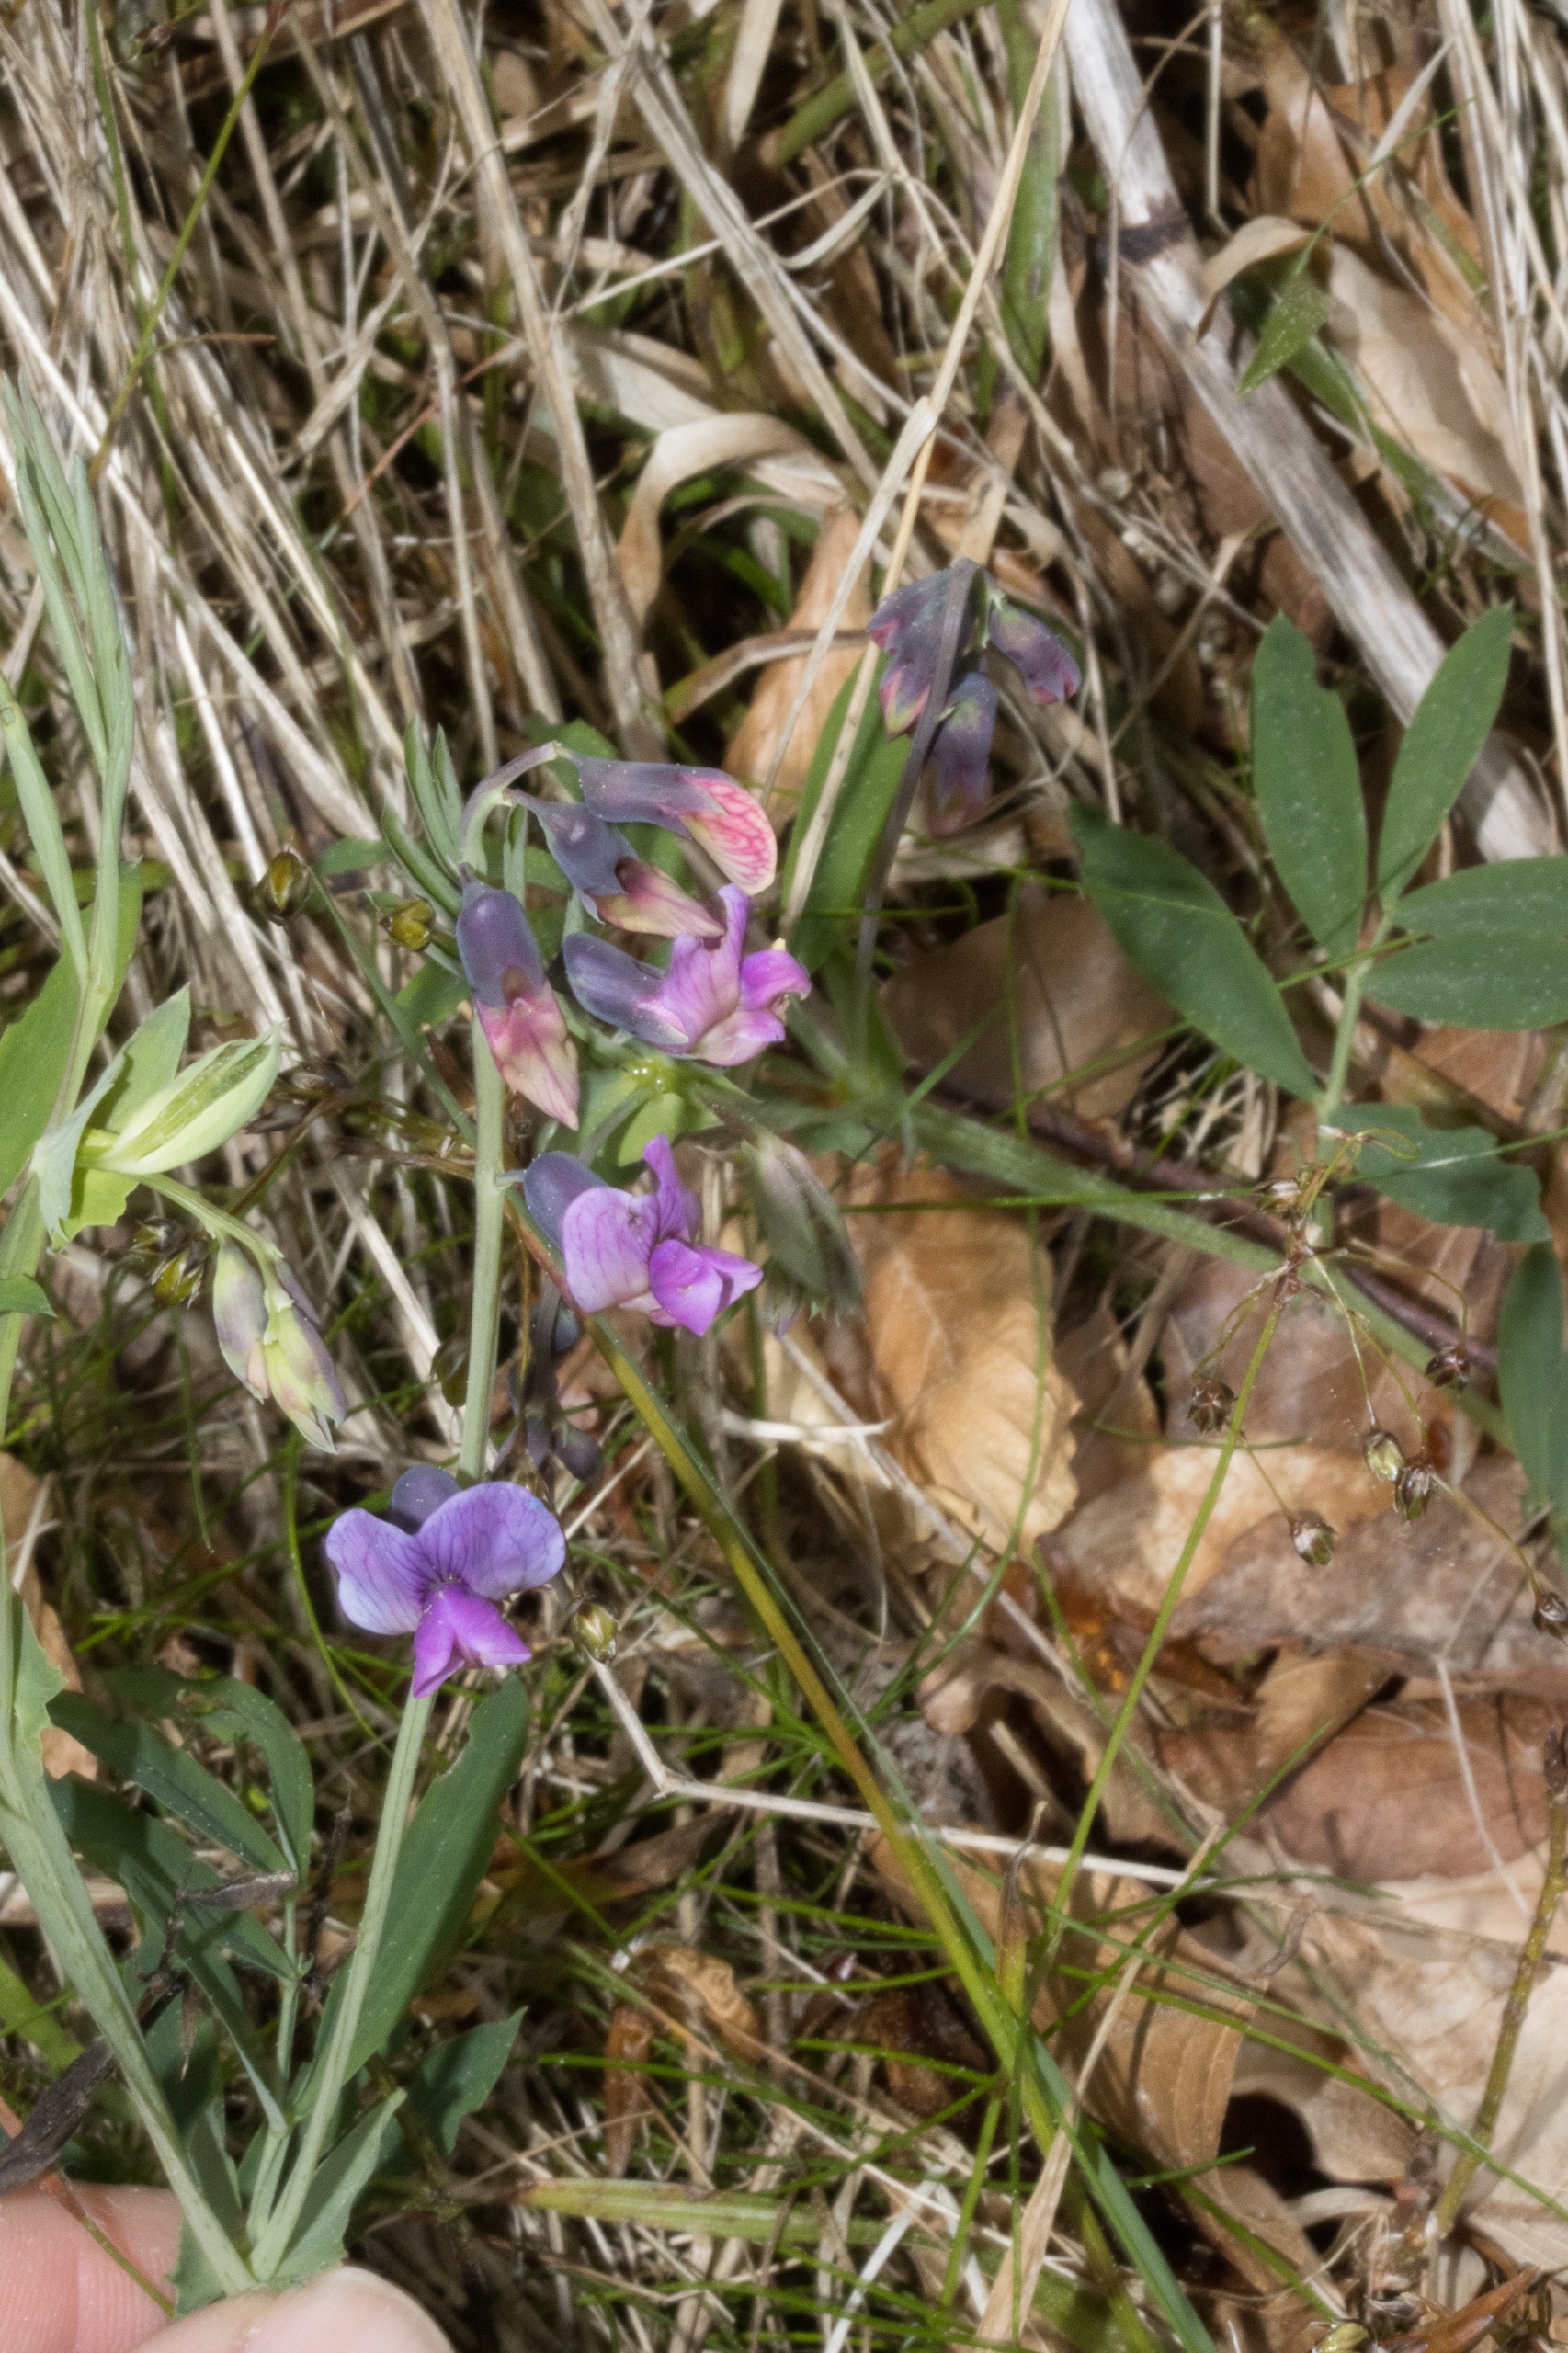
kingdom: Plantae
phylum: Tracheophyta
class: Magnoliopsida
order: Fabales
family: Fabaceae
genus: Lathyrus
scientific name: Lathyrus linifolius
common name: Krat-fladbælg
